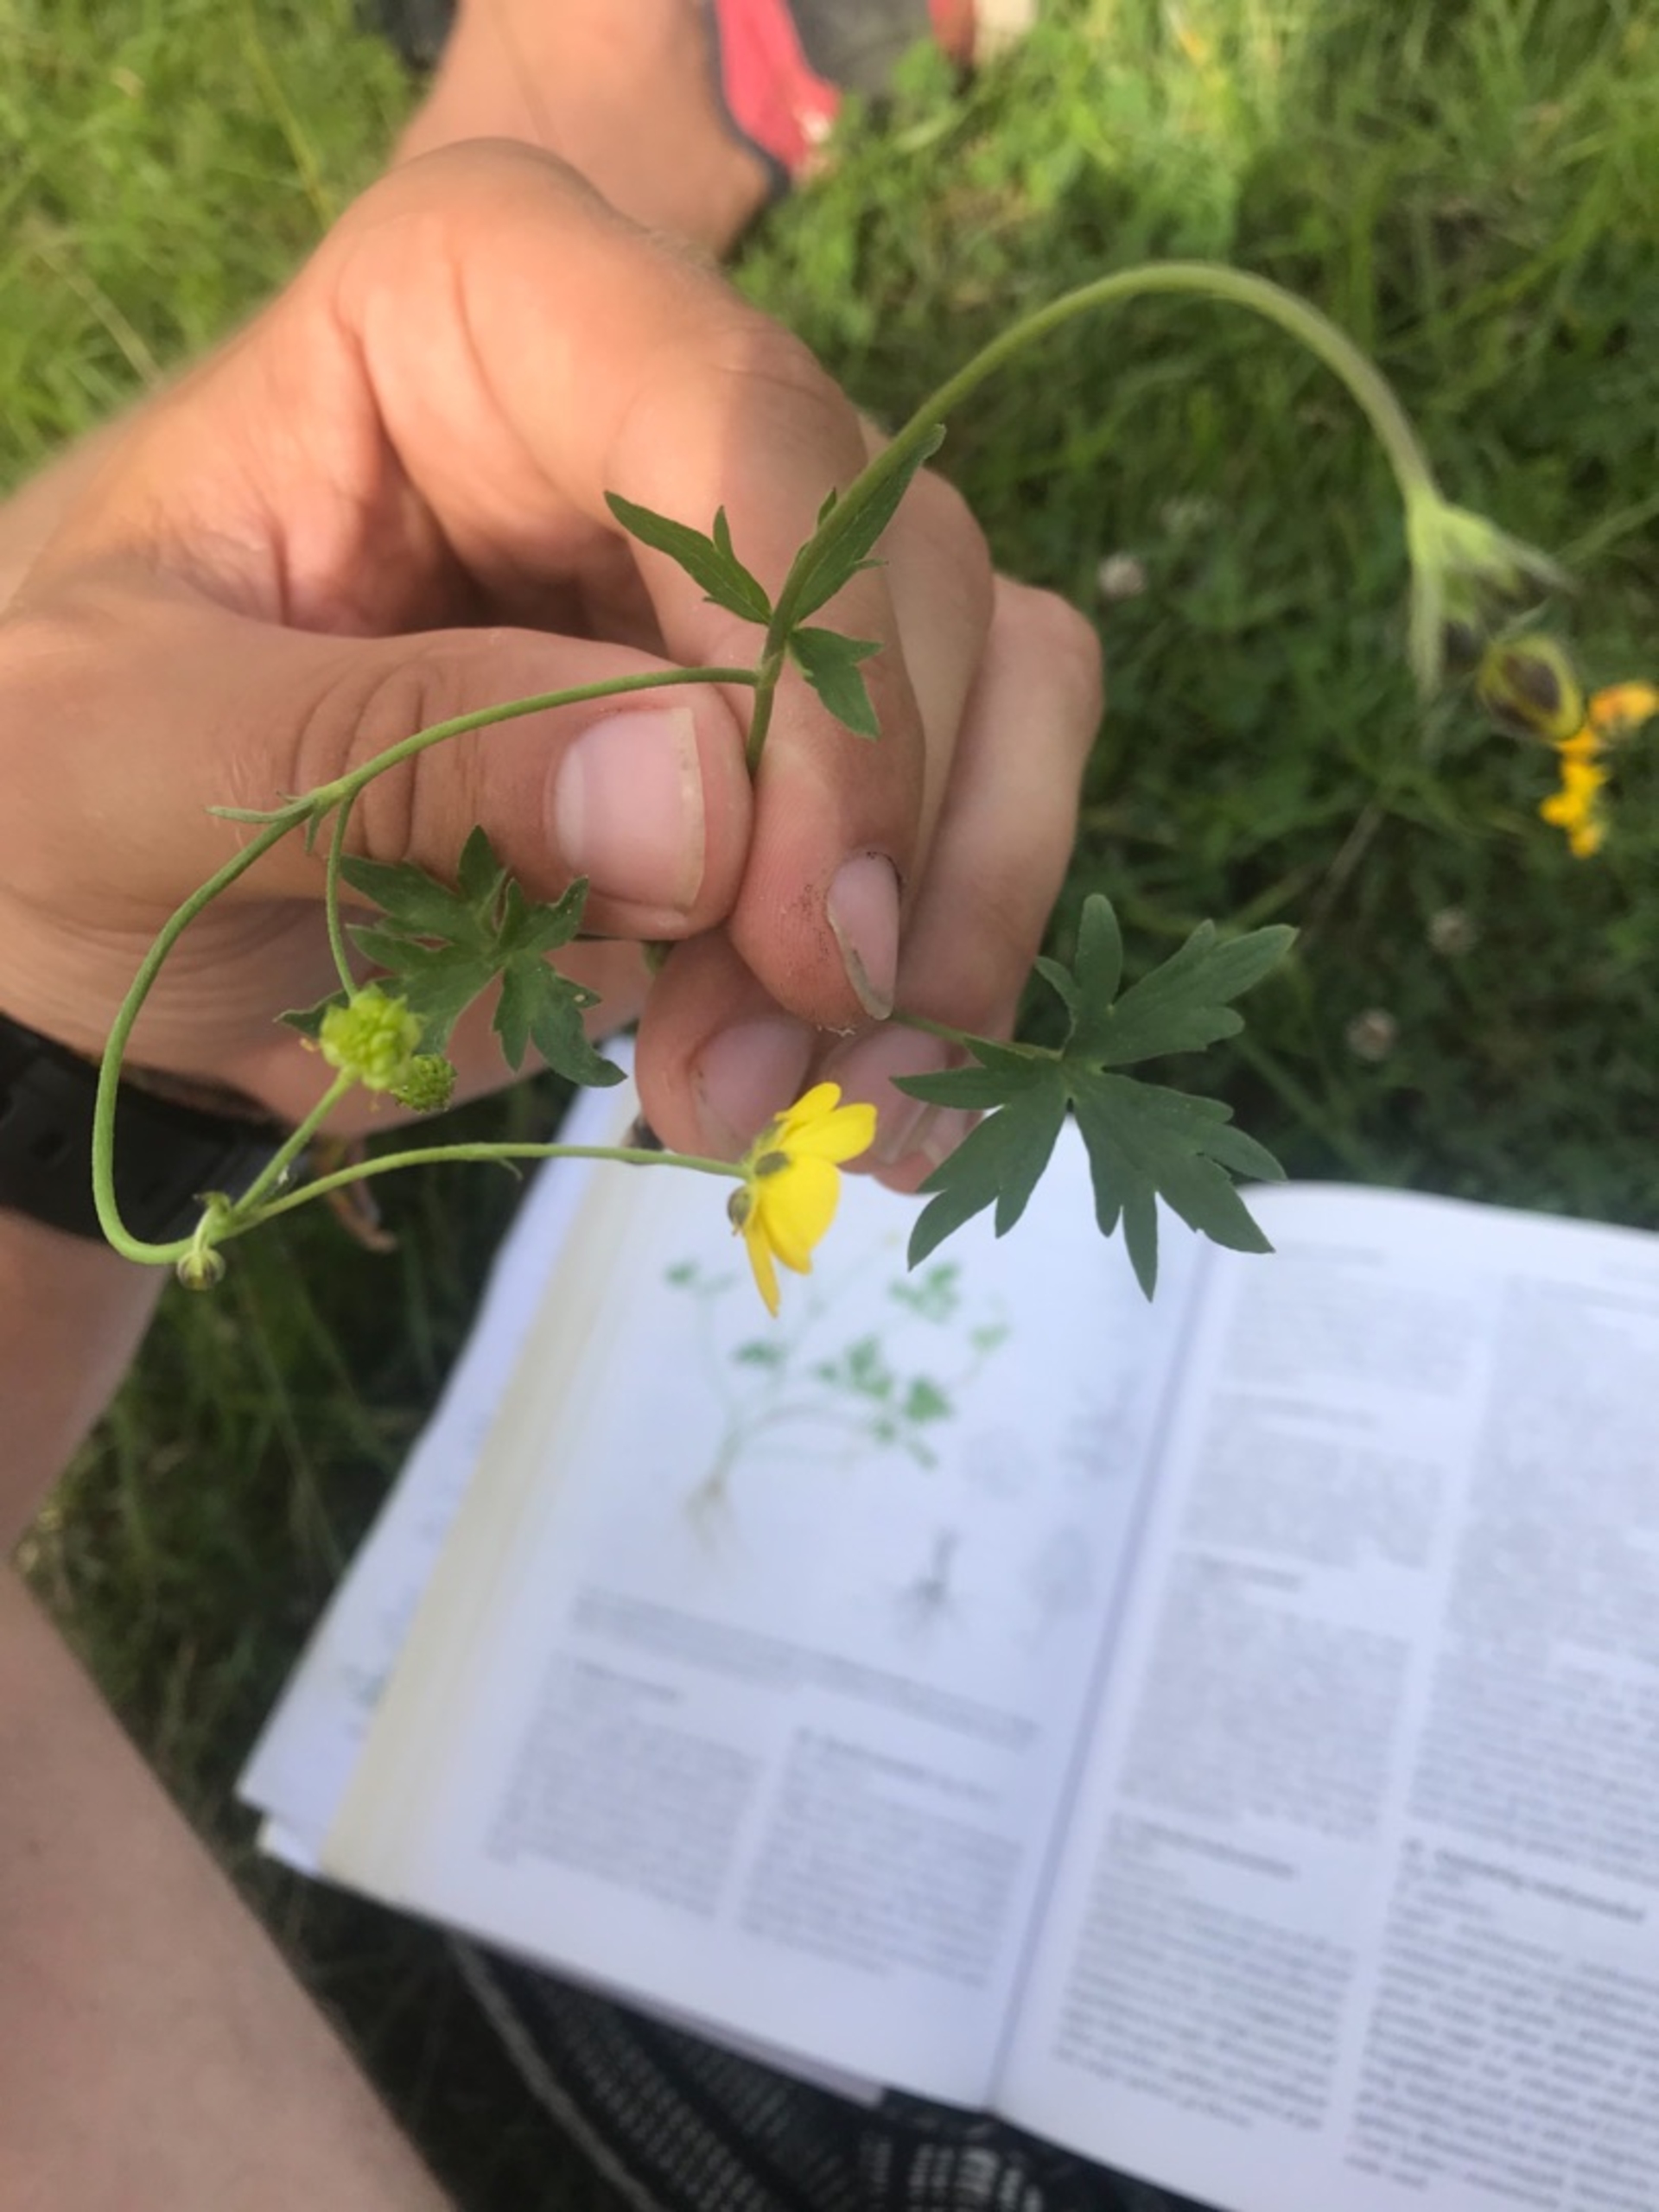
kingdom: Plantae
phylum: Tracheophyta
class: Magnoliopsida
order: Ranunculales
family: Ranunculaceae
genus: Ranunculus
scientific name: Ranunculus acris
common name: Bidende ranunkel
